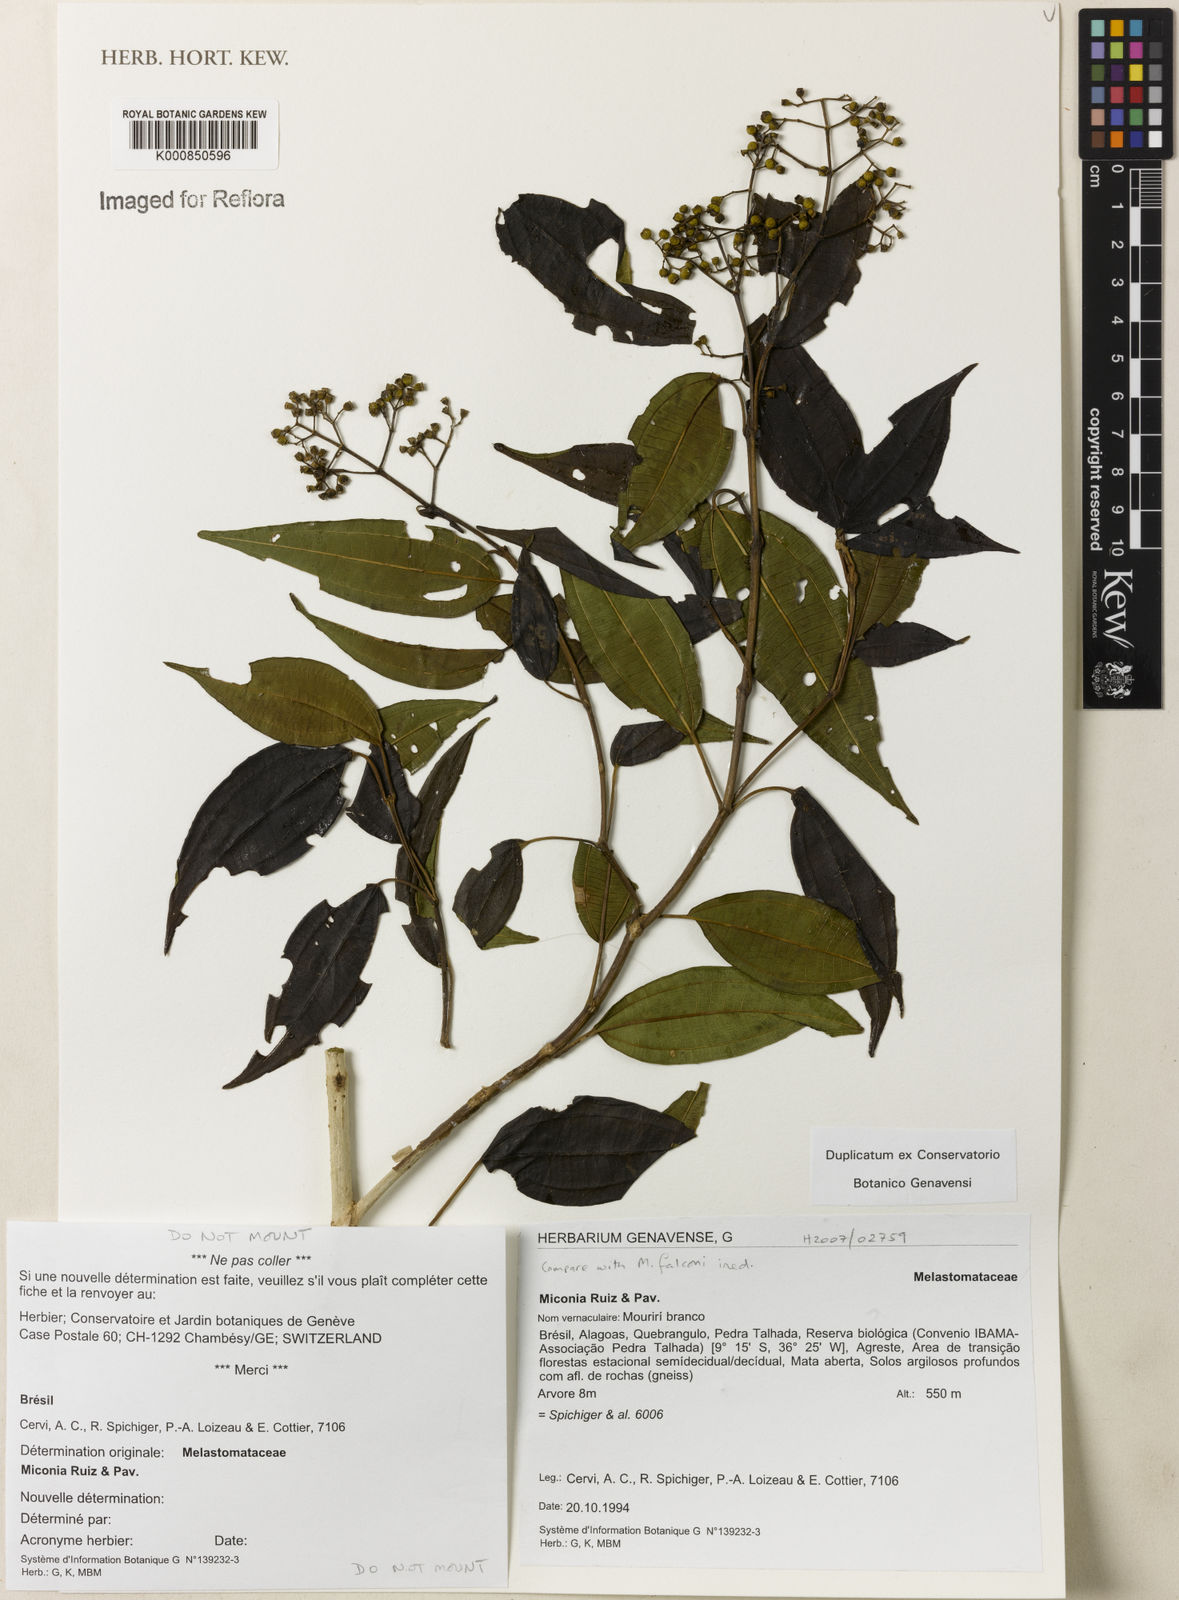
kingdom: Plantae
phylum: Tracheophyta
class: Magnoliopsida
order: Myrtales
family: Melastomataceae
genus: Miconia
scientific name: Miconia nordestina
